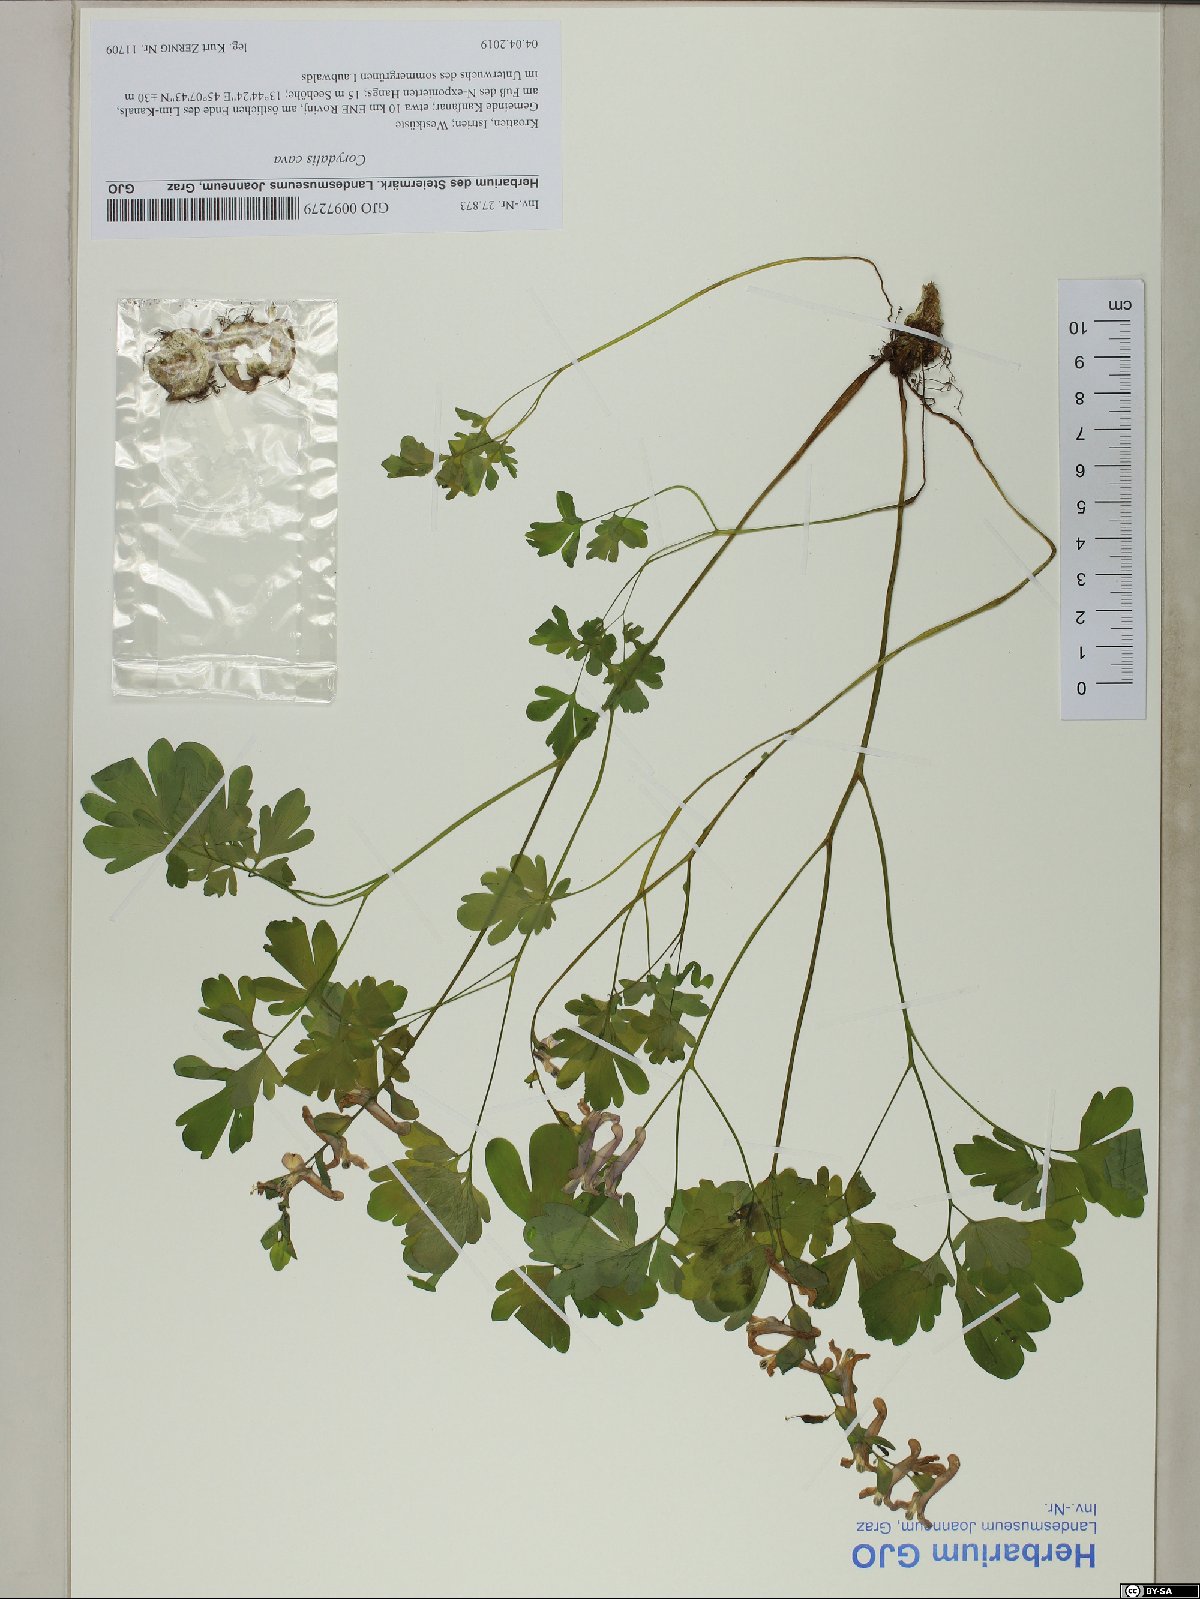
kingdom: Plantae
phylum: Tracheophyta
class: Magnoliopsida
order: Ranunculales
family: Papaveraceae
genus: Corydalis
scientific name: Corydalis cava
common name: Hollowroot
